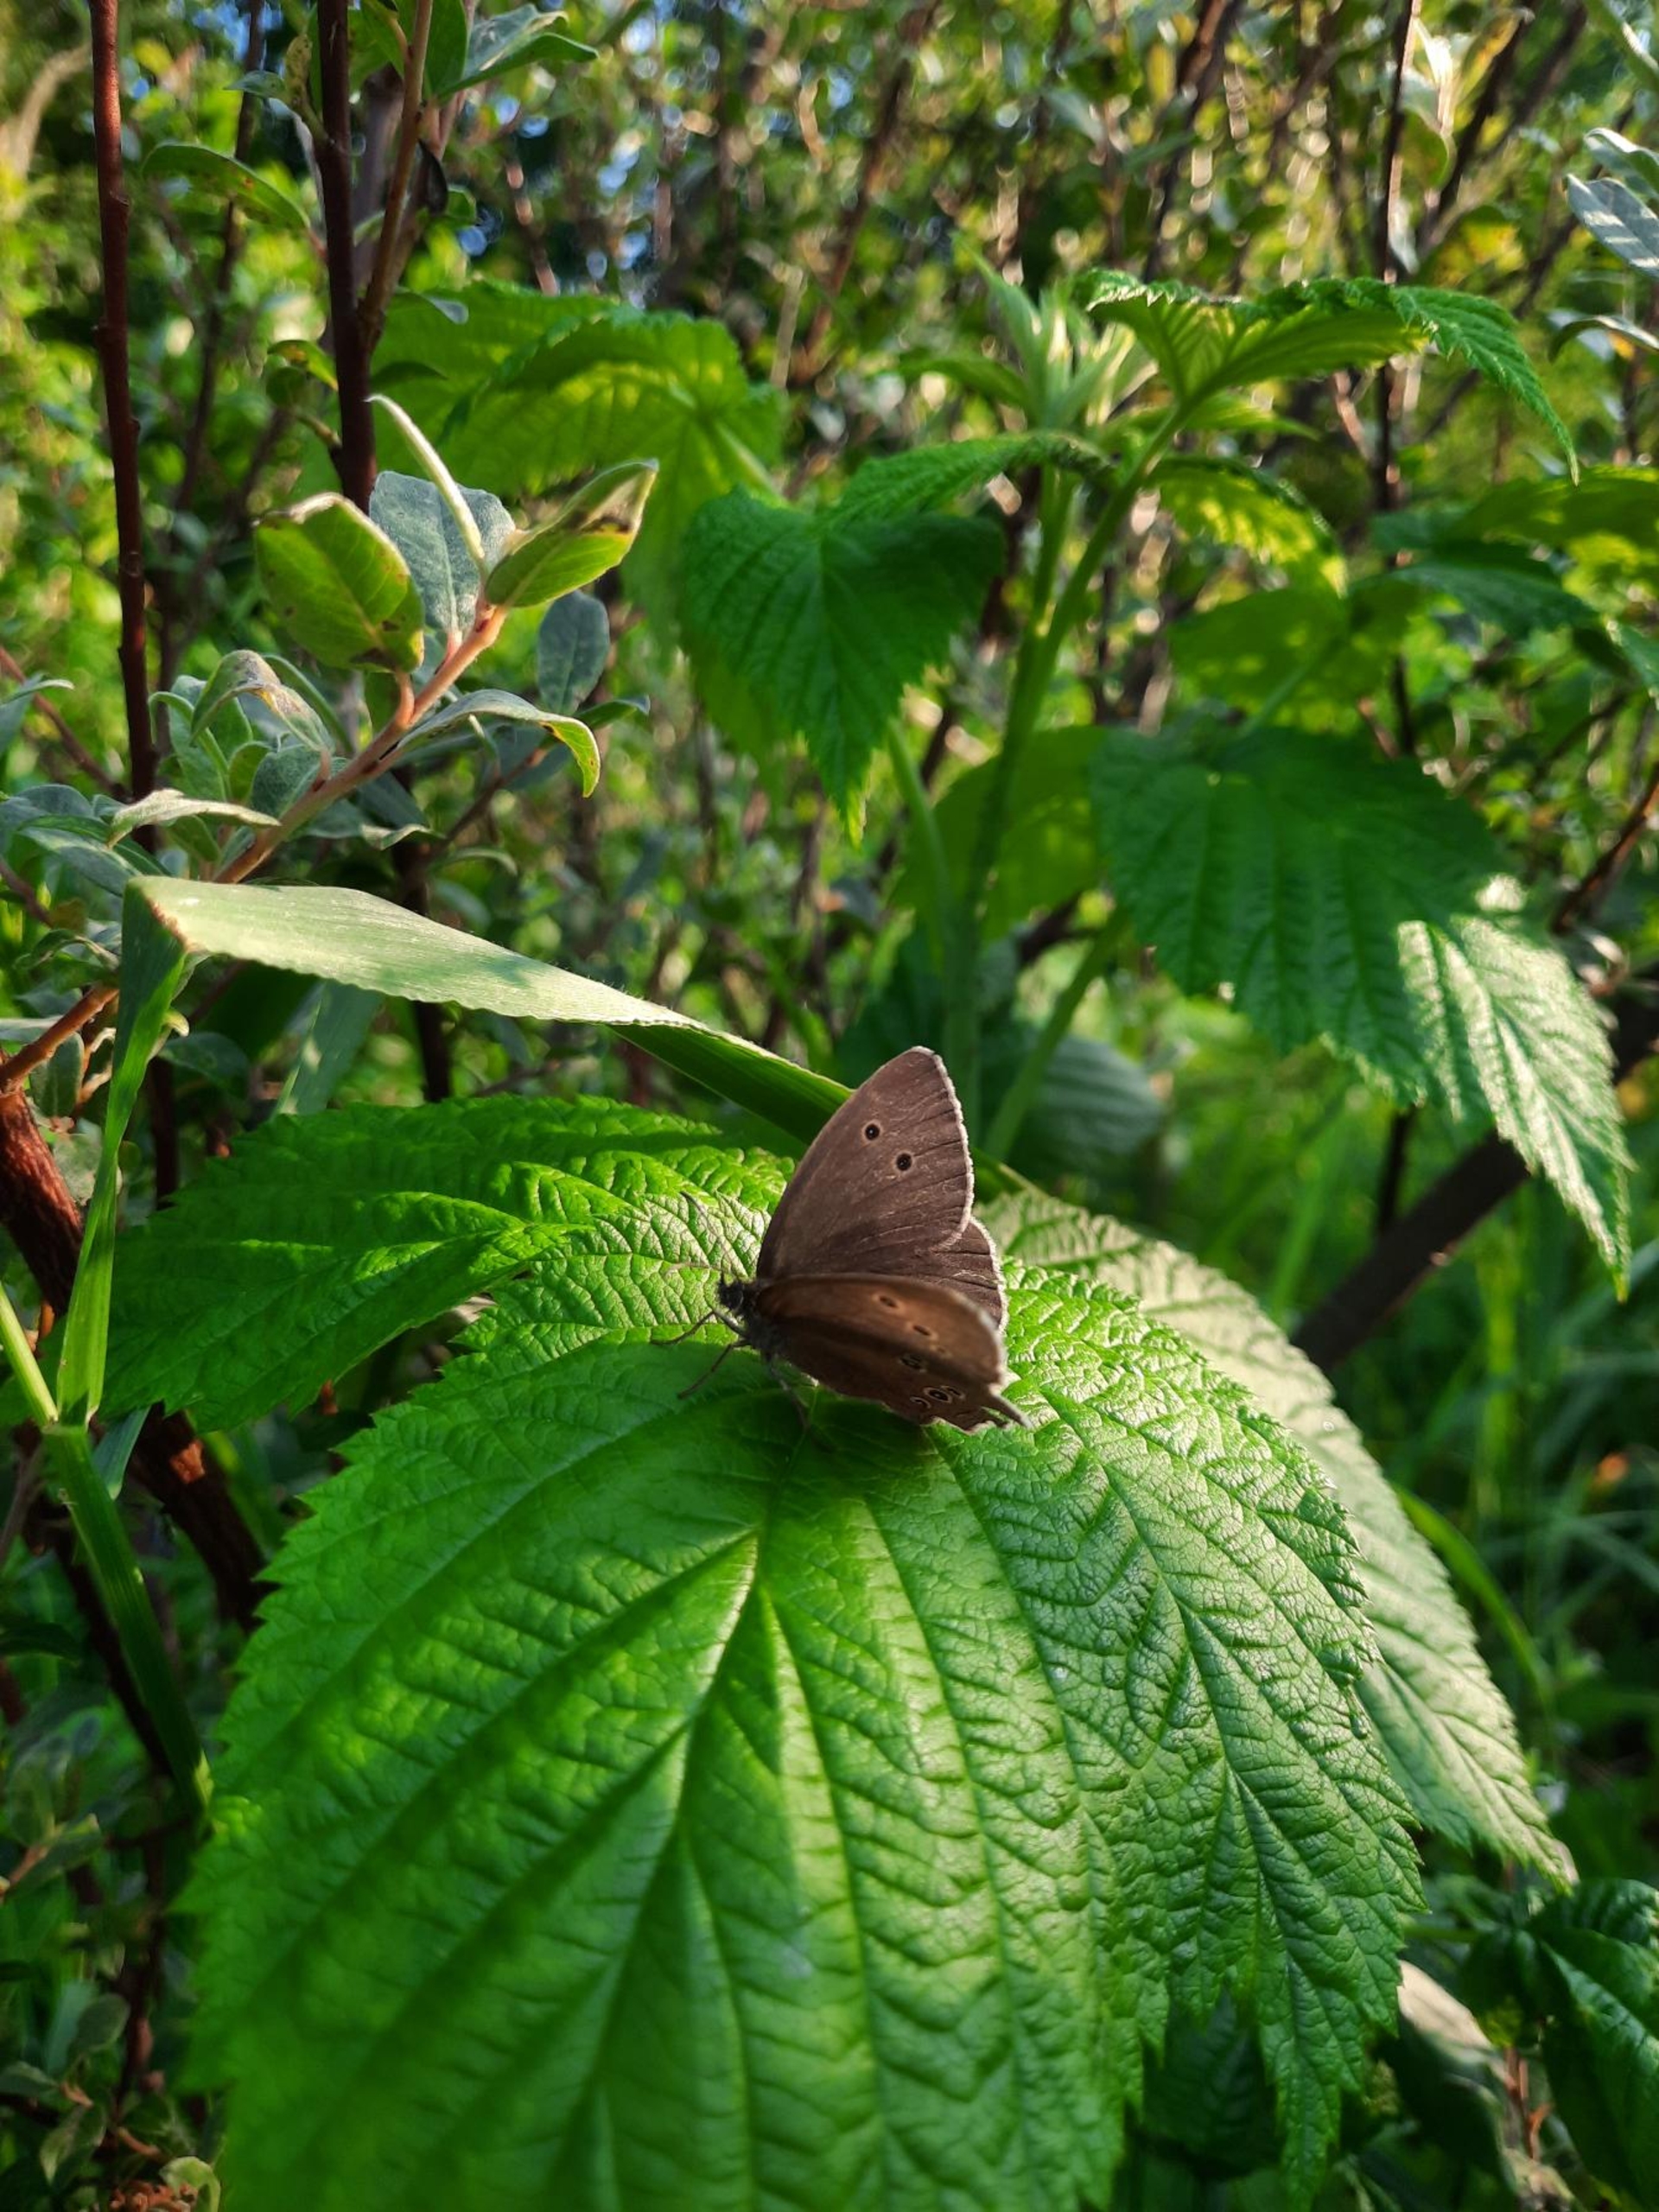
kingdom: Animalia
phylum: Arthropoda
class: Insecta
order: Lepidoptera
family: Nymphalidae
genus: Aphantopus
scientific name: Aphantopus hyperantus
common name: Engrandøje
